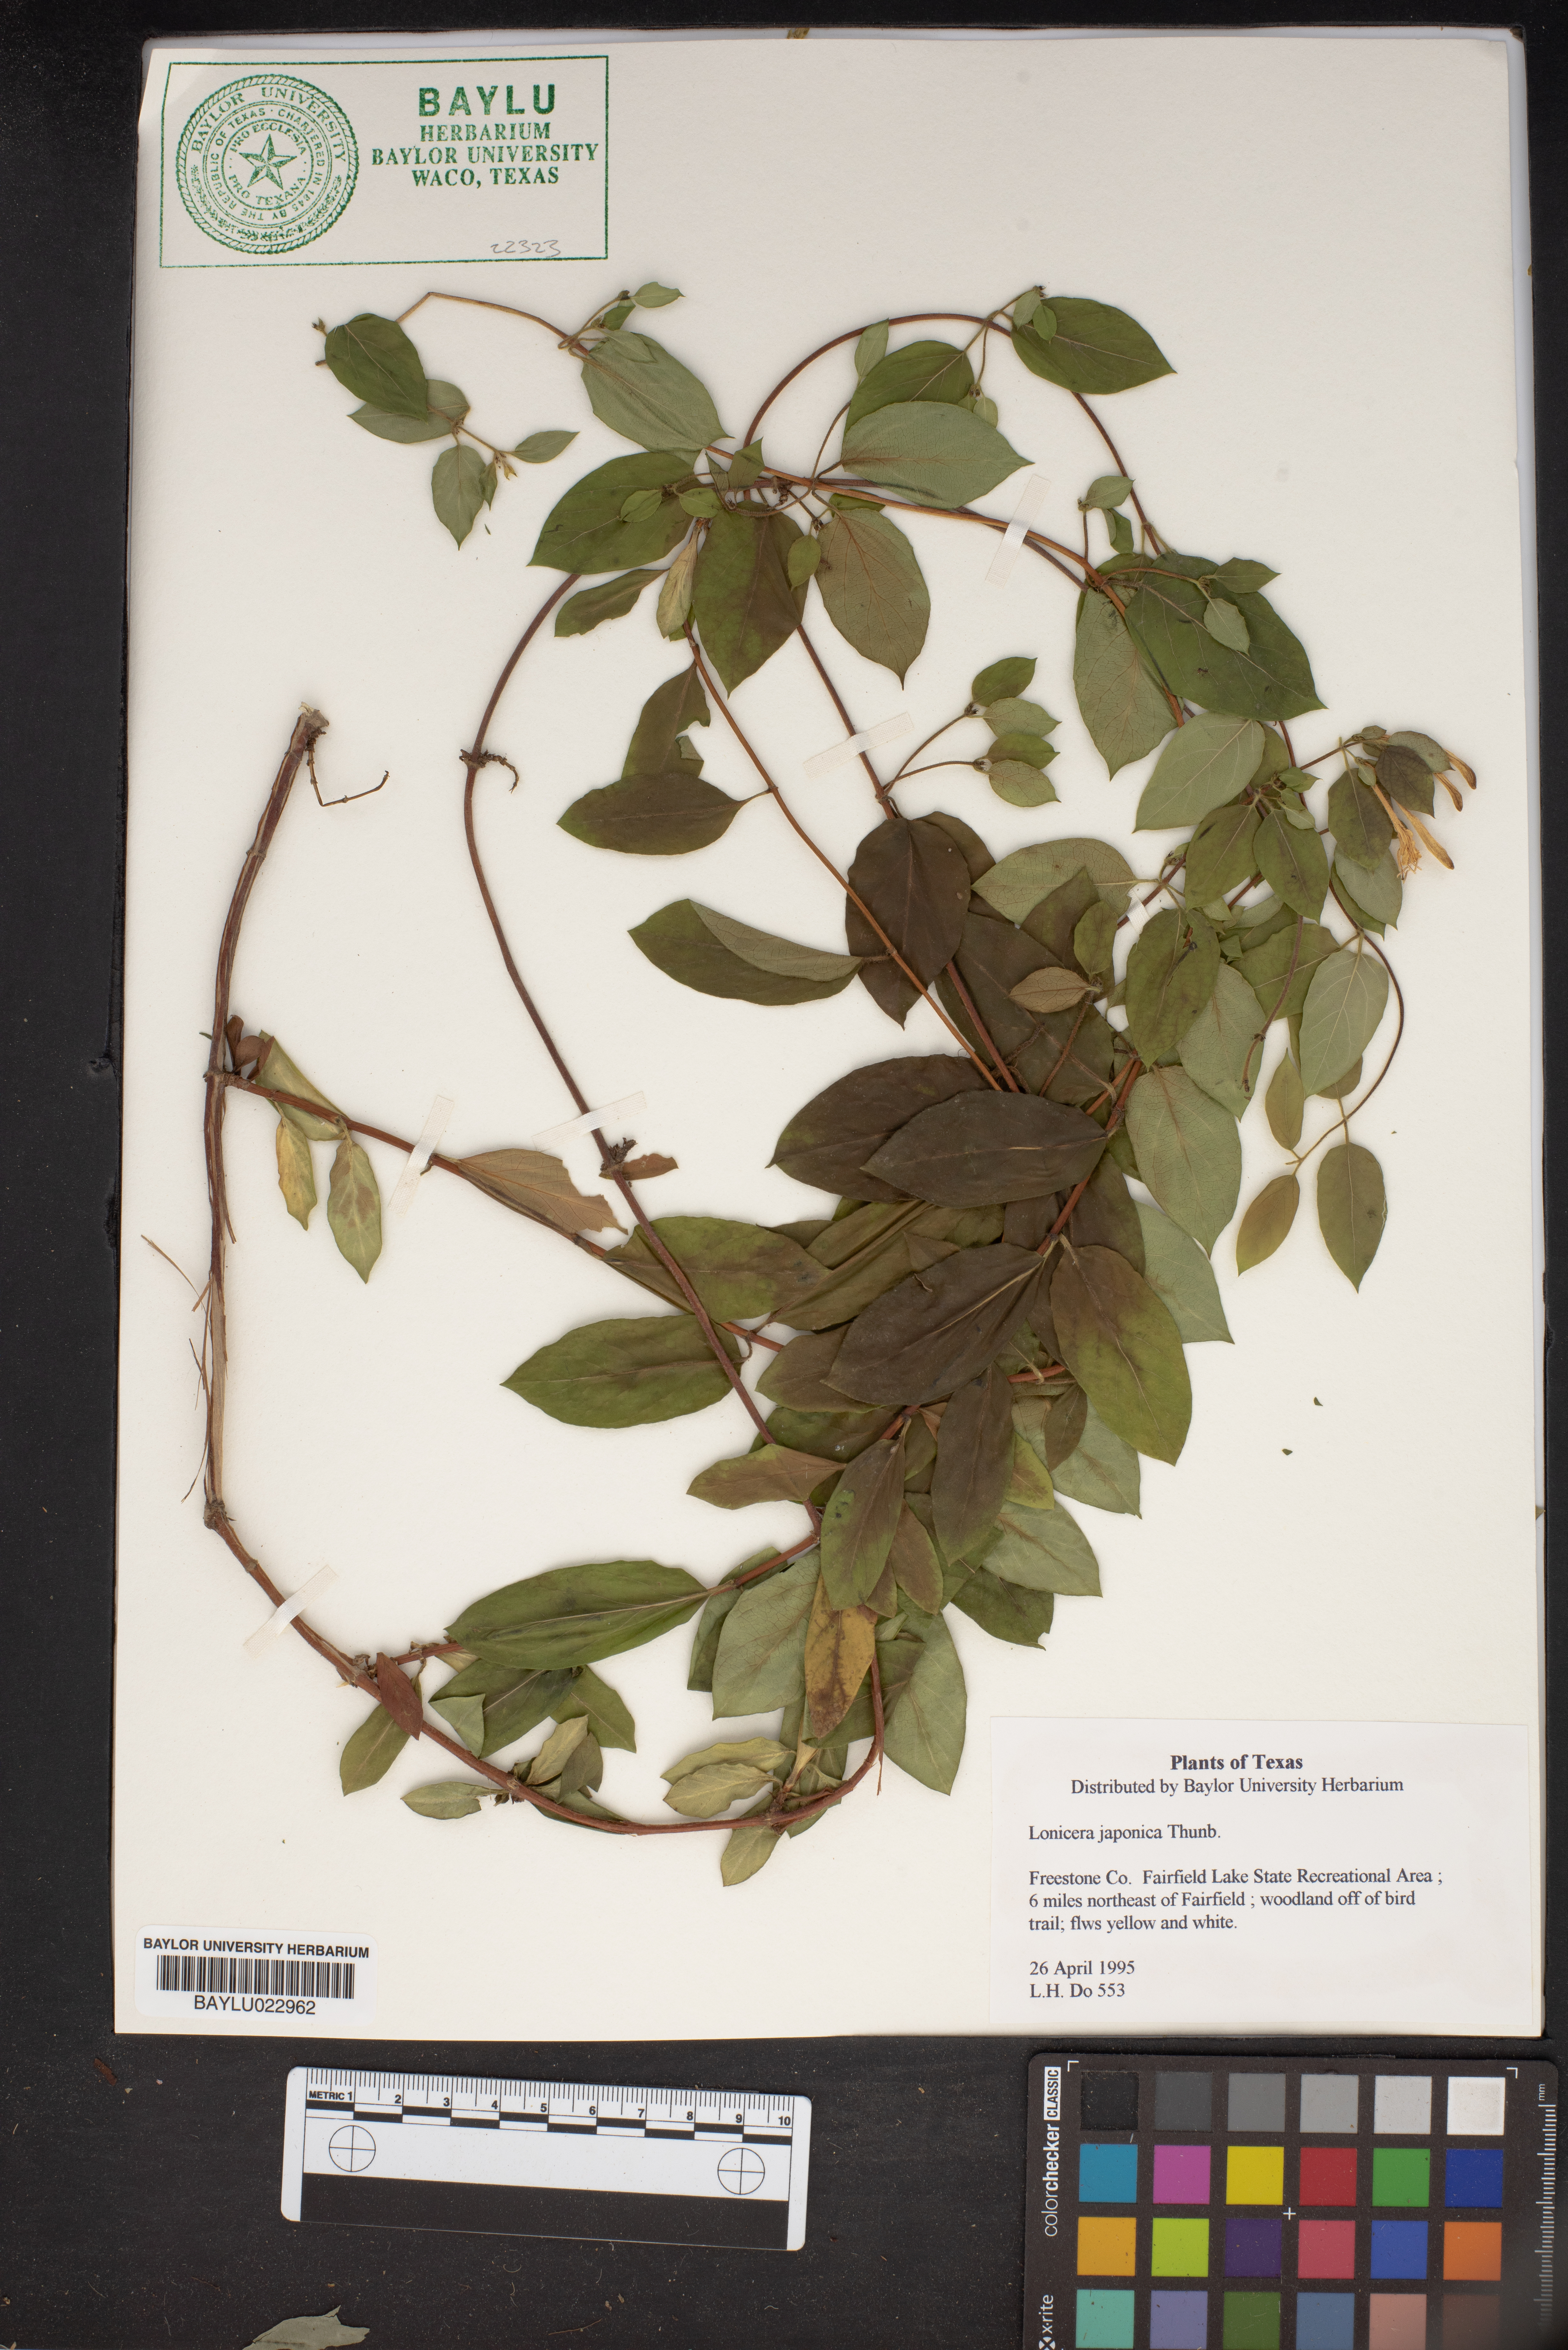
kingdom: Plantae
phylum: Tracheophyta
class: Magnoliopsida
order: Dipsacales
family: Caprifoliaceae
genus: Lonicera
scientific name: Lonicera japonica
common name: Japanese honeysuckle
